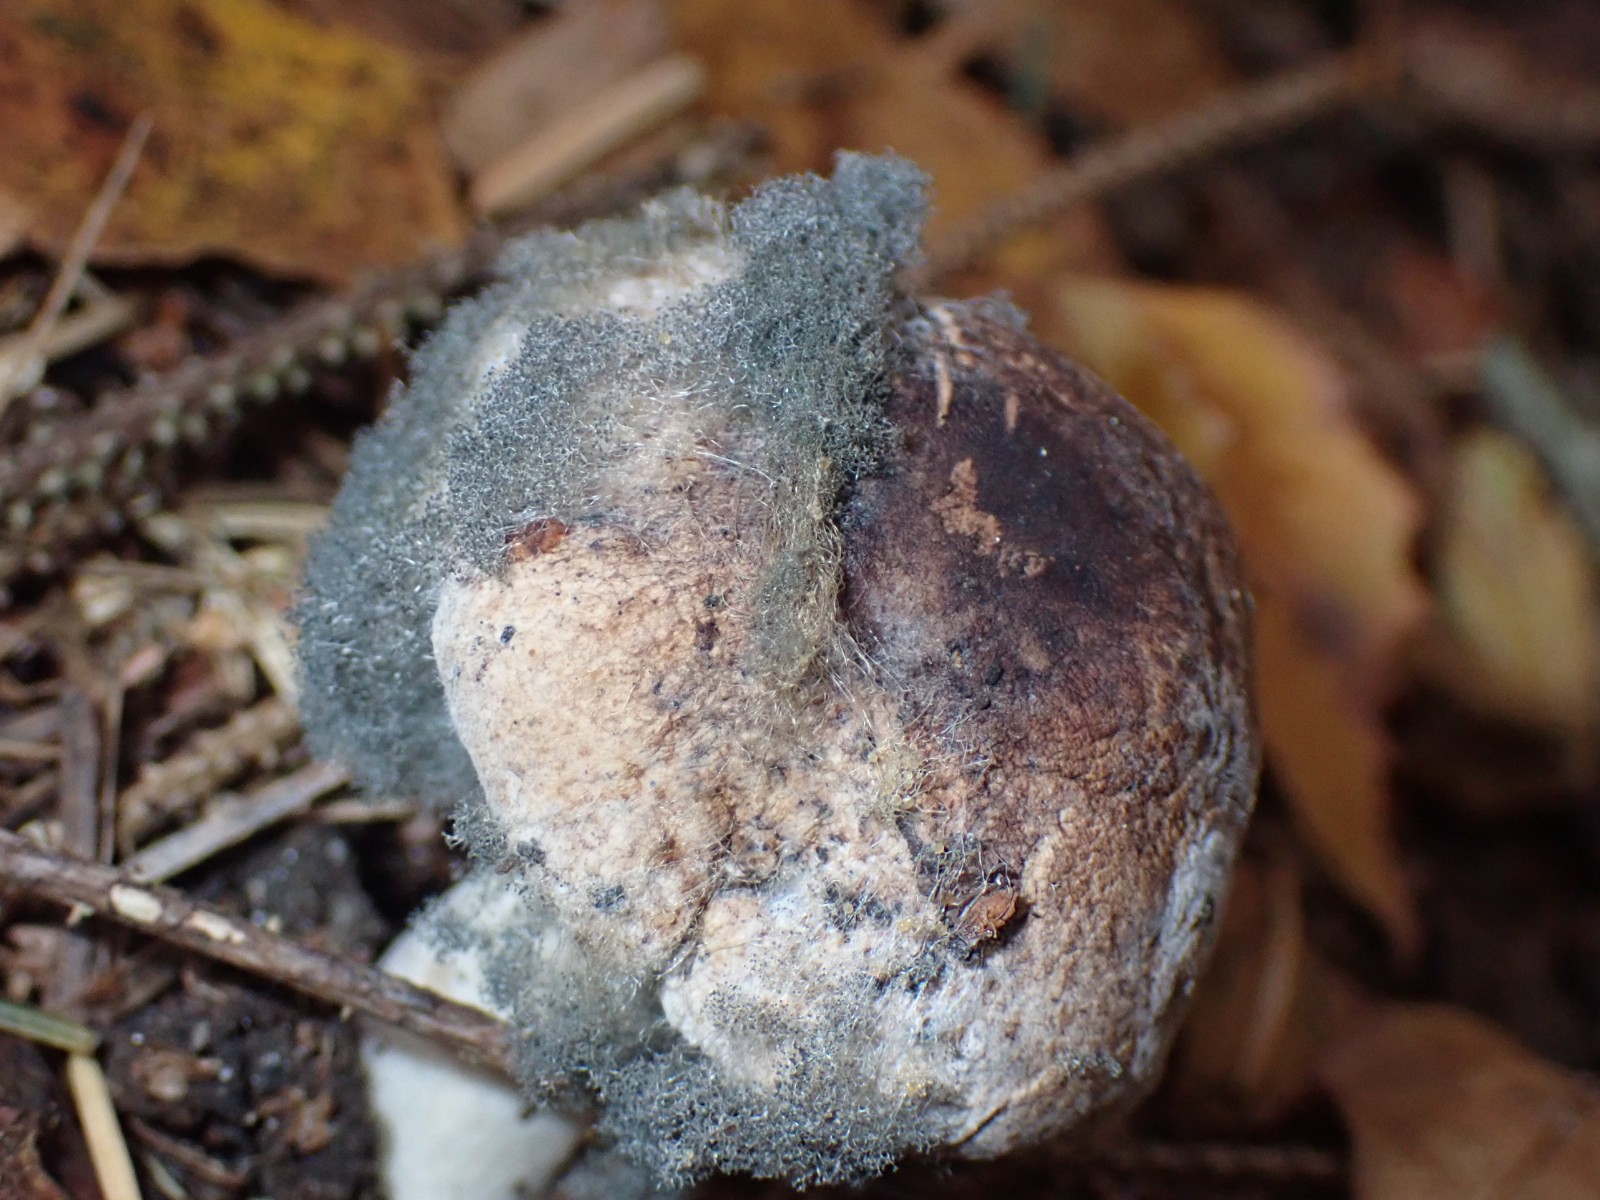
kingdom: Fungi
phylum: Mucoromycota
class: Mucoromycetes
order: Mucorales
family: Rhizopodaceae
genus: Syzygites
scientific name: Syzygites megalocarpus
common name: nissenål
